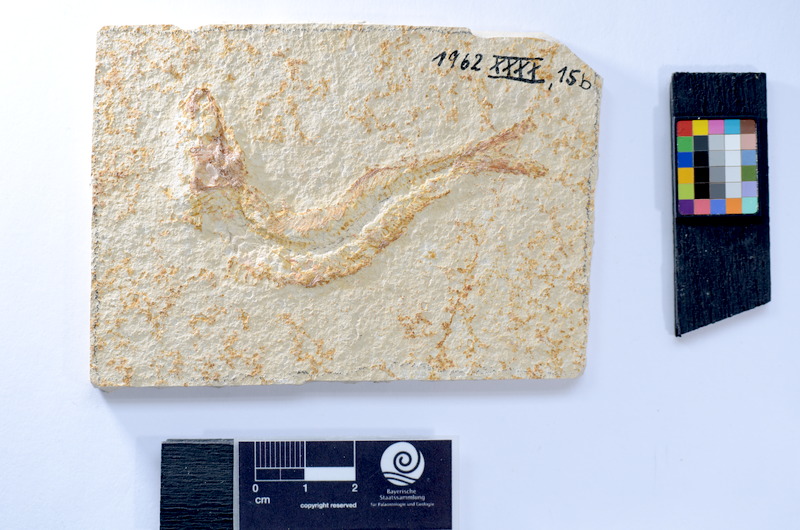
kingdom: Animalia
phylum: Chordata
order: Elopiformes
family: Anaethalionidae
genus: Anaethalion
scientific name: Anaethalion knorri
